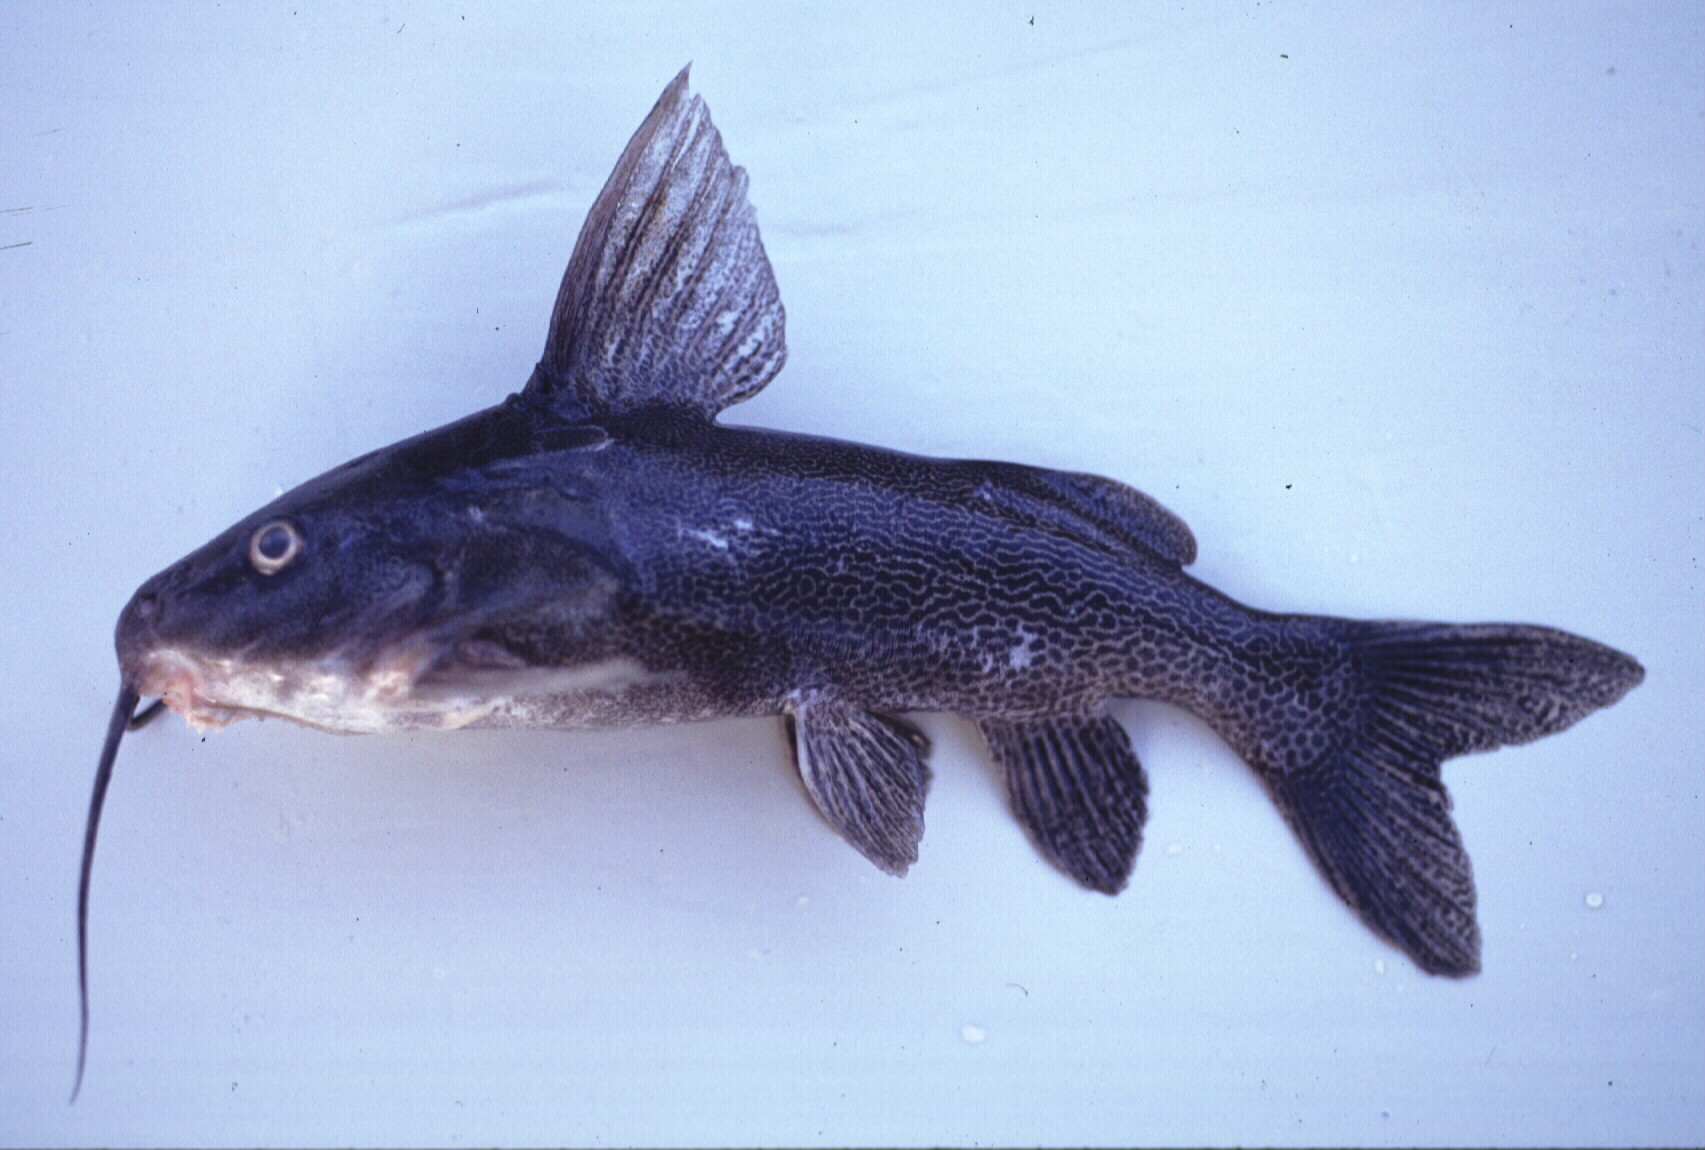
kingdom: Animalia
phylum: Chordata
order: Siluriformes
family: Mochokidae
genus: Synodontis
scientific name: Synodontis vanderwaali
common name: Finetooth squeaker
